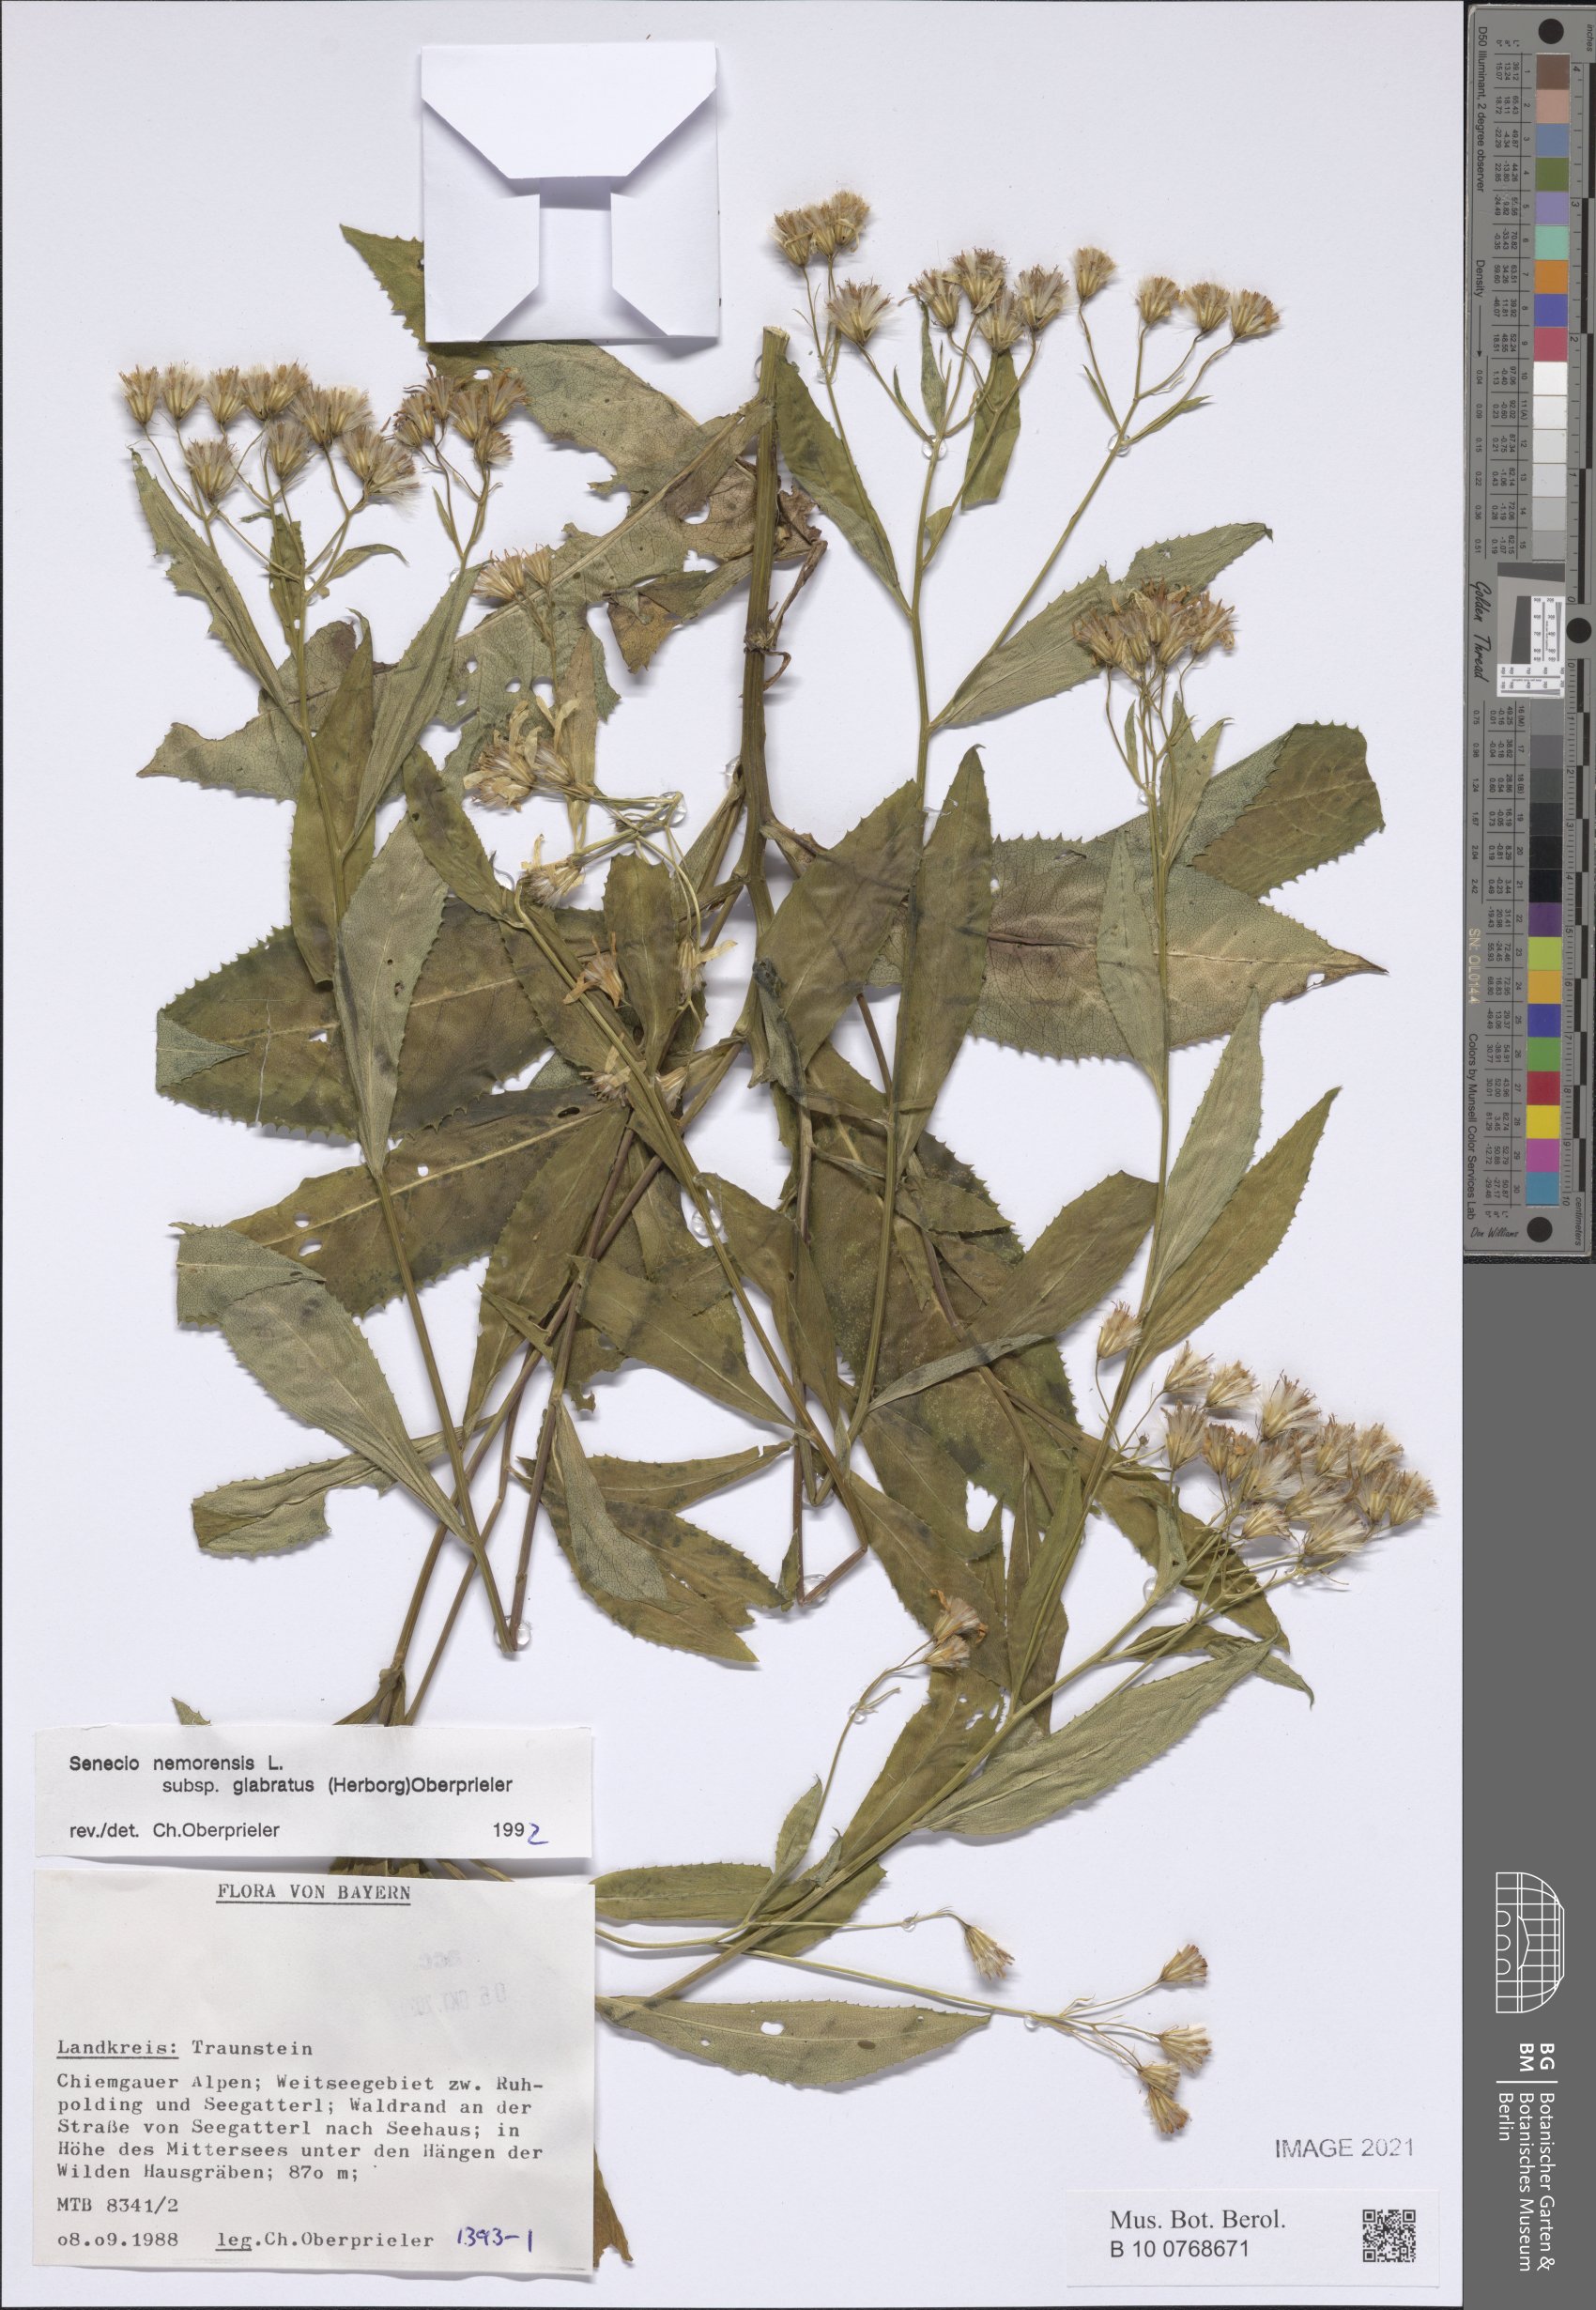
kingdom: Plantae
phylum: Tracheophyta
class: Magnoliopsida
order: Asterales
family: Asteraceae
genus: Senecio
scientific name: Senecio germanicus
